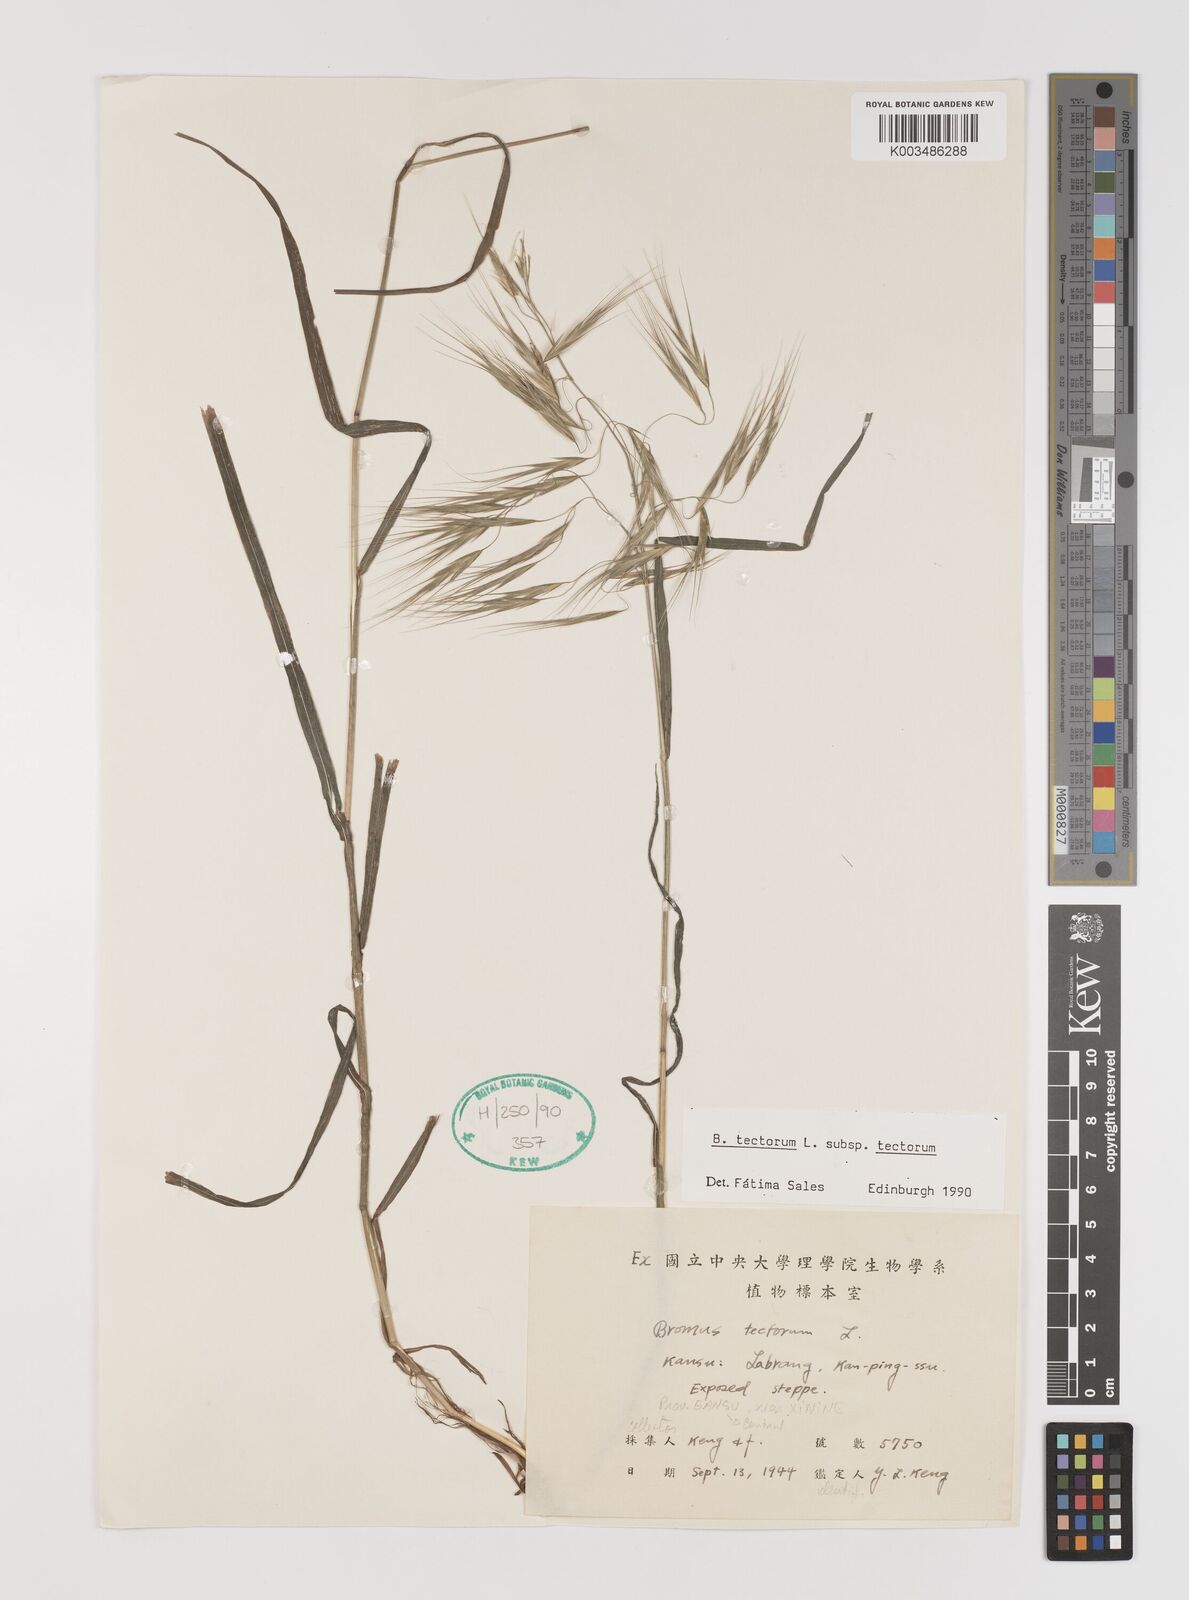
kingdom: Plantae
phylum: Tracheophyta
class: Liliopsida
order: Poales
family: Poaceae
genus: Bromus
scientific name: Bromus tectorum
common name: Cheatgrass
